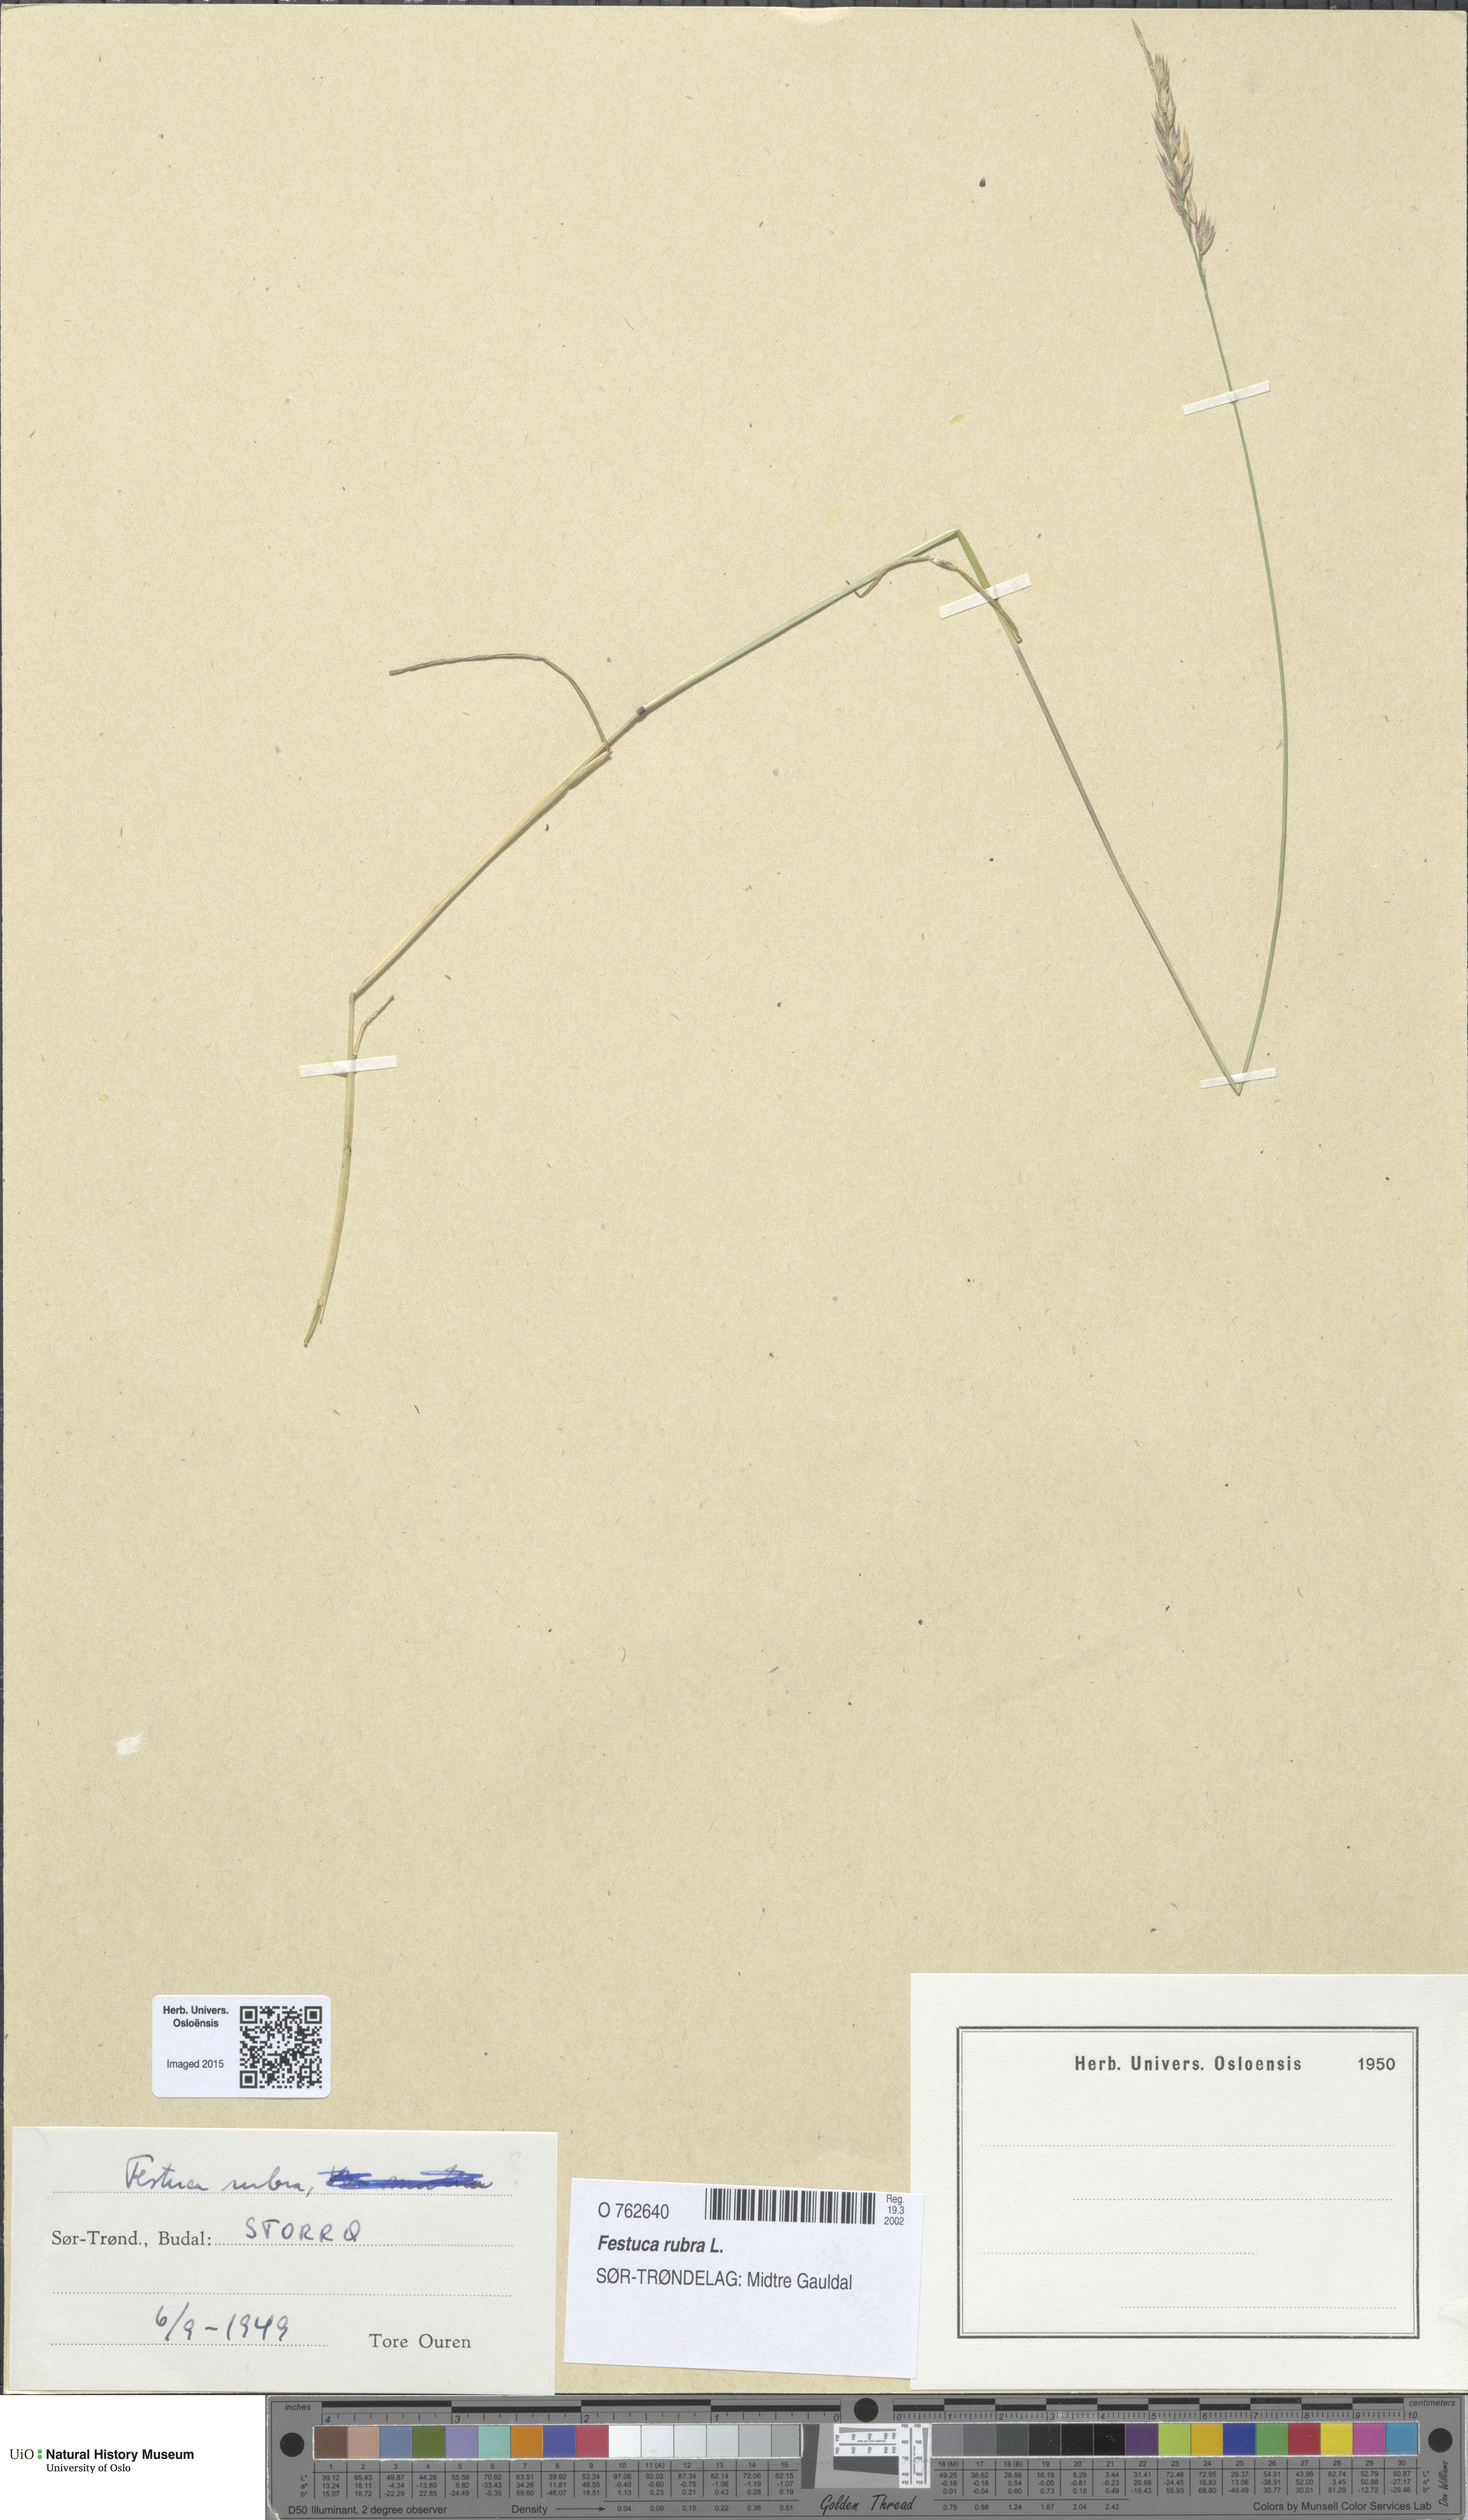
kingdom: Plantae
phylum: Tracheophyta
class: Liliopsida
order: Poales
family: Poaceae
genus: Festuca
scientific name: Festuca rubra
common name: Red fescue
